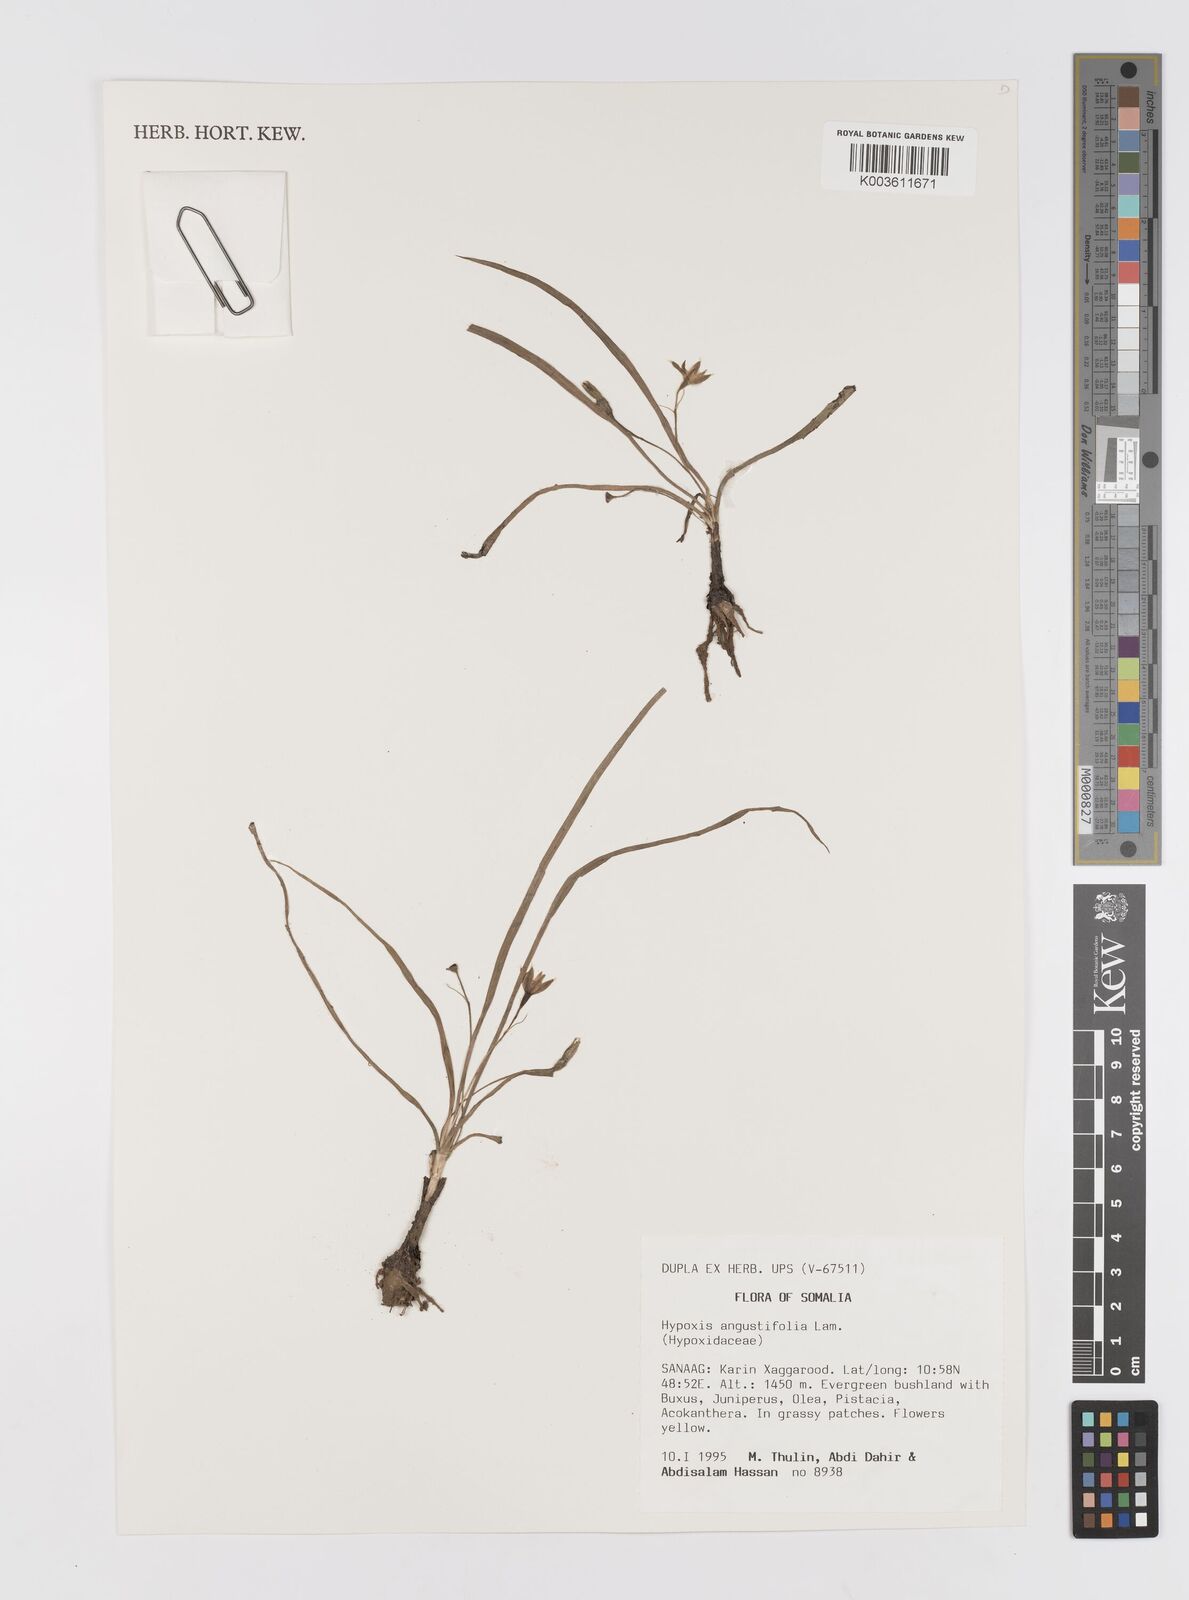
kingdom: Plantae
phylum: Tracheophyta
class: Liliopsida
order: Asparagales
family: Hypoxidaceae
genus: Hypoxis
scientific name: Hypoxis angustifolia
